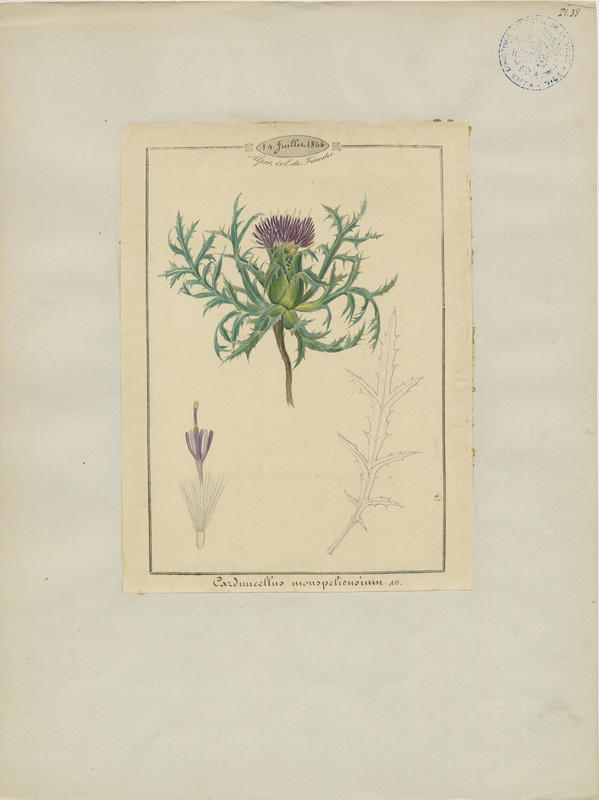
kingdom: Plantae
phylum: Tracheophyta
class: Magnoliopsida
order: Asterales
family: Asteraceae
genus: Carduncellus
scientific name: Carduncellus monspelliensium
